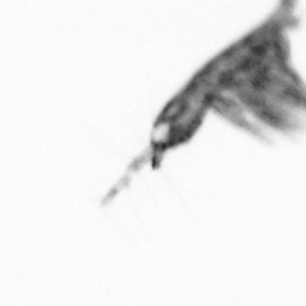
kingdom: Animalia
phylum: Arthropoda
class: Copepoda
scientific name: Copepoda
